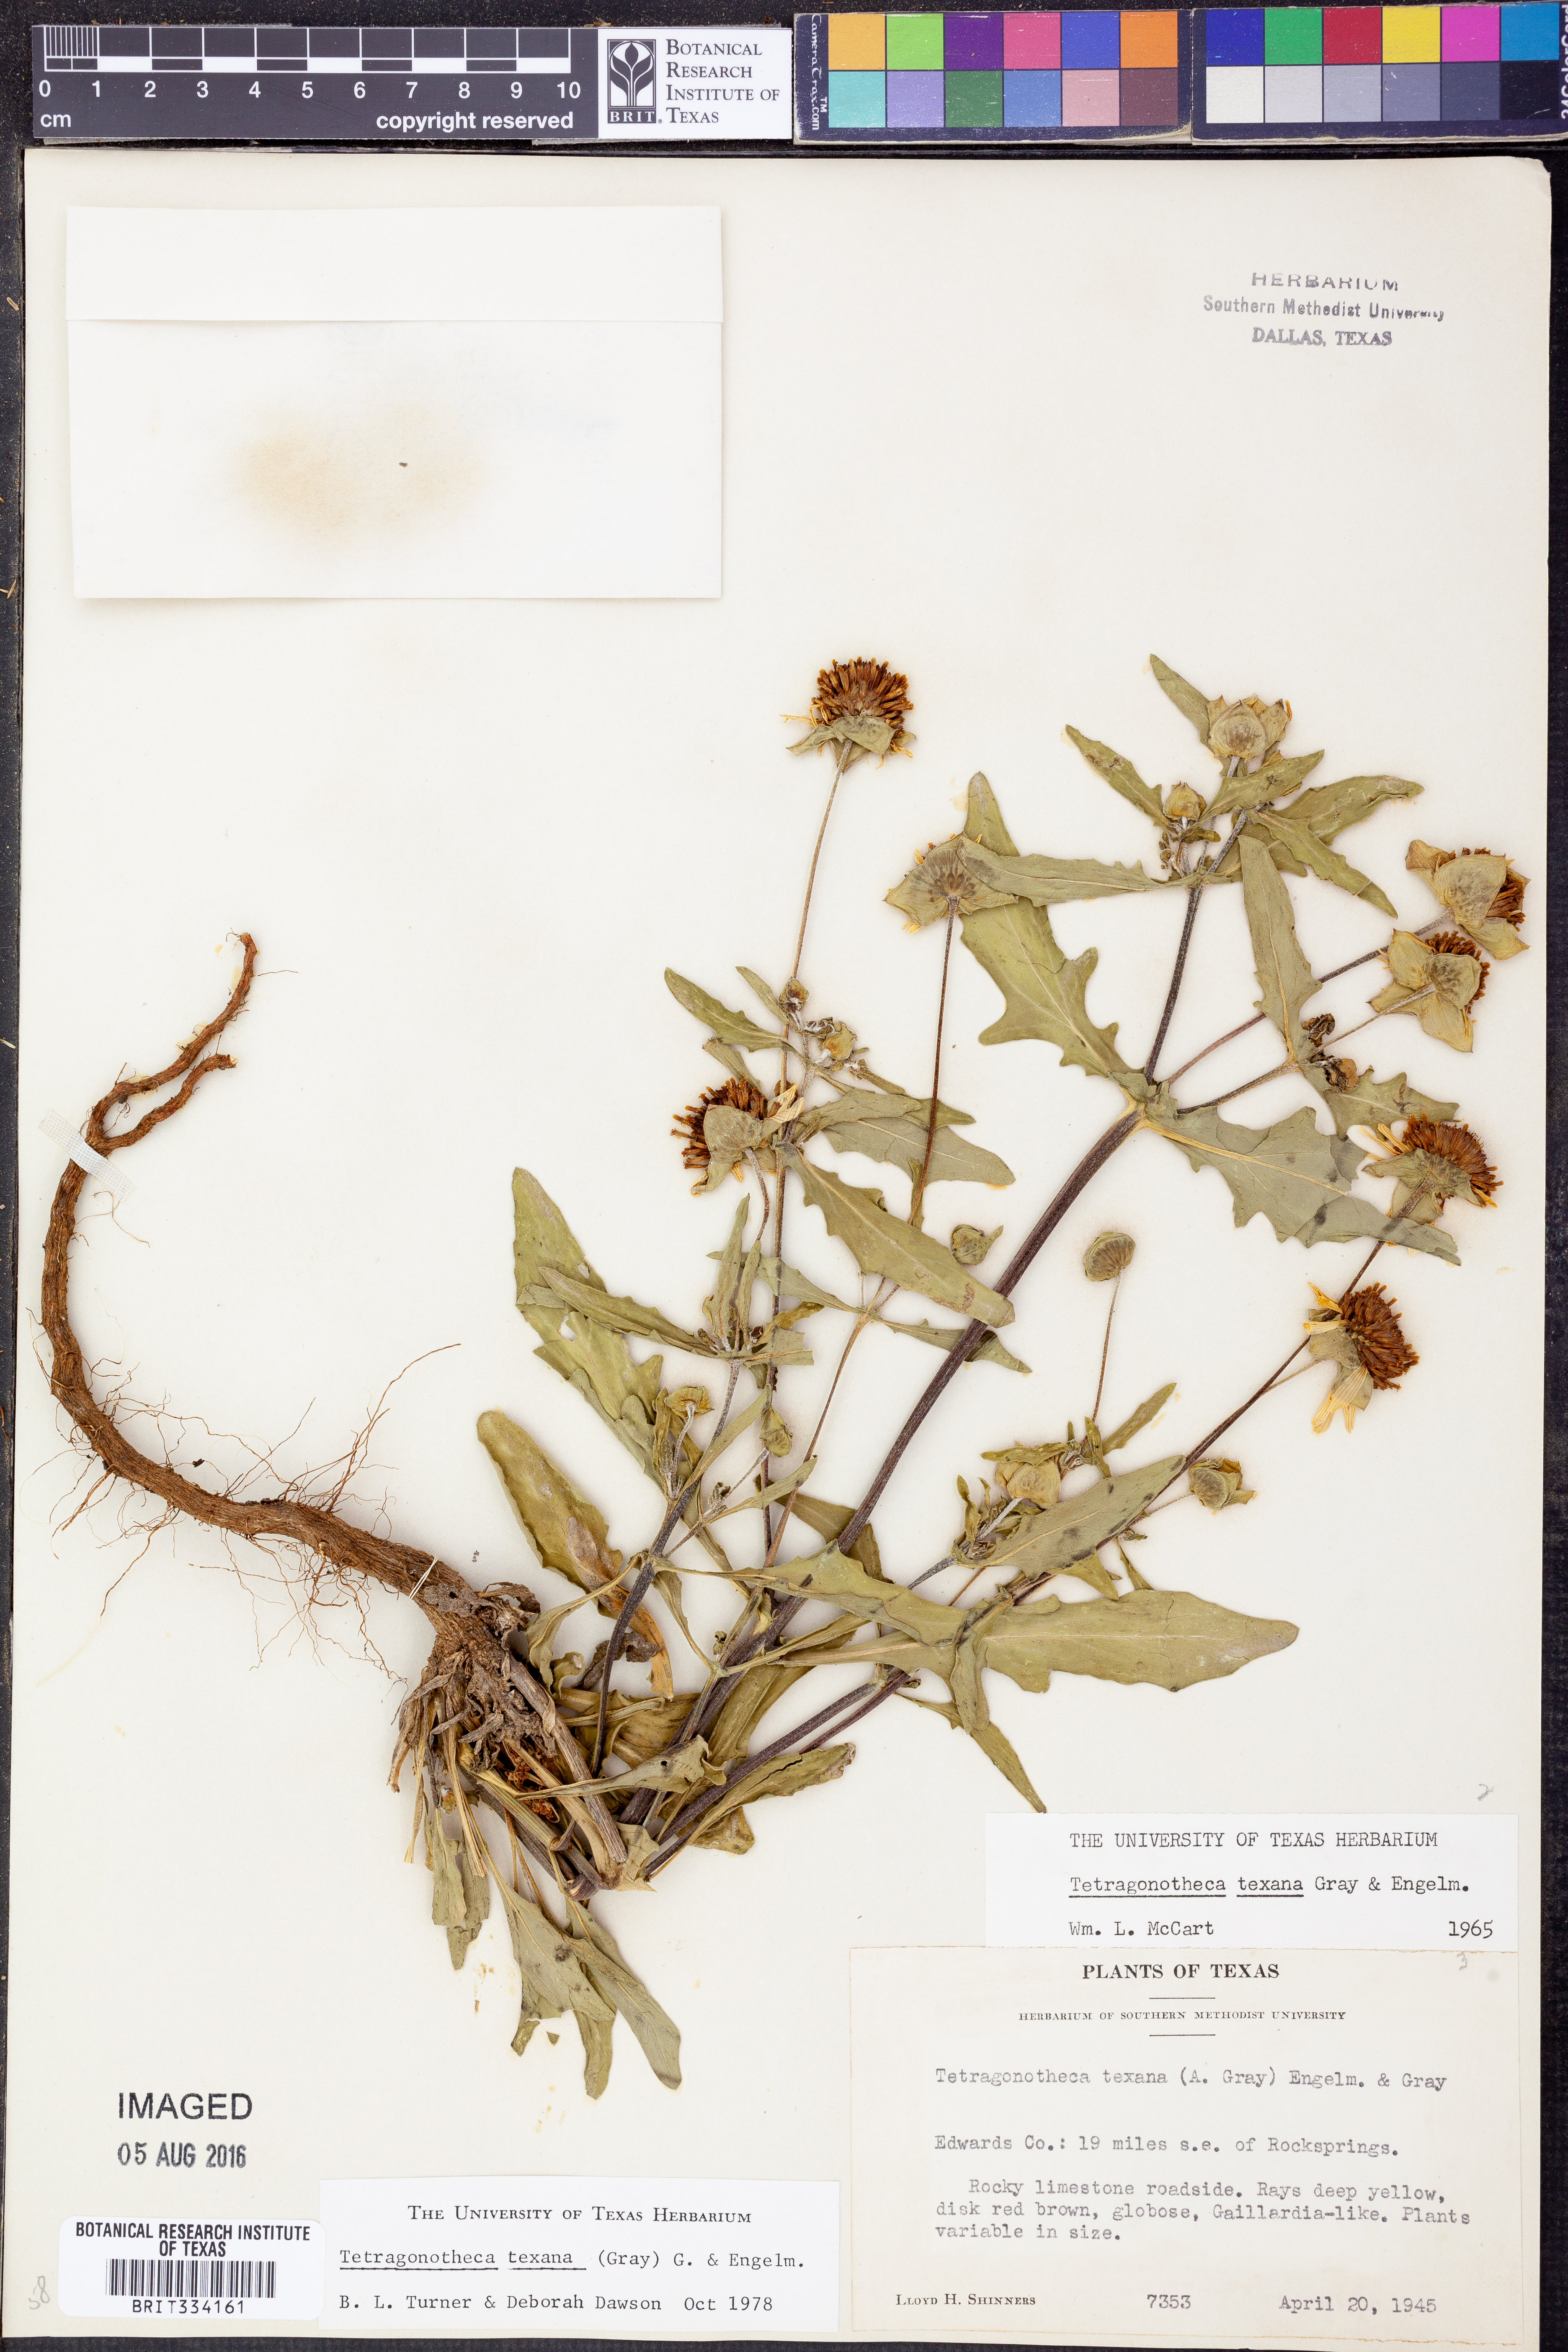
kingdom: Plantae
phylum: Tracheophyta
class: Magnoliopsida
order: Asterales
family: Asteraceae
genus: Tetragonotheca
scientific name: Tetragonotheca texana
